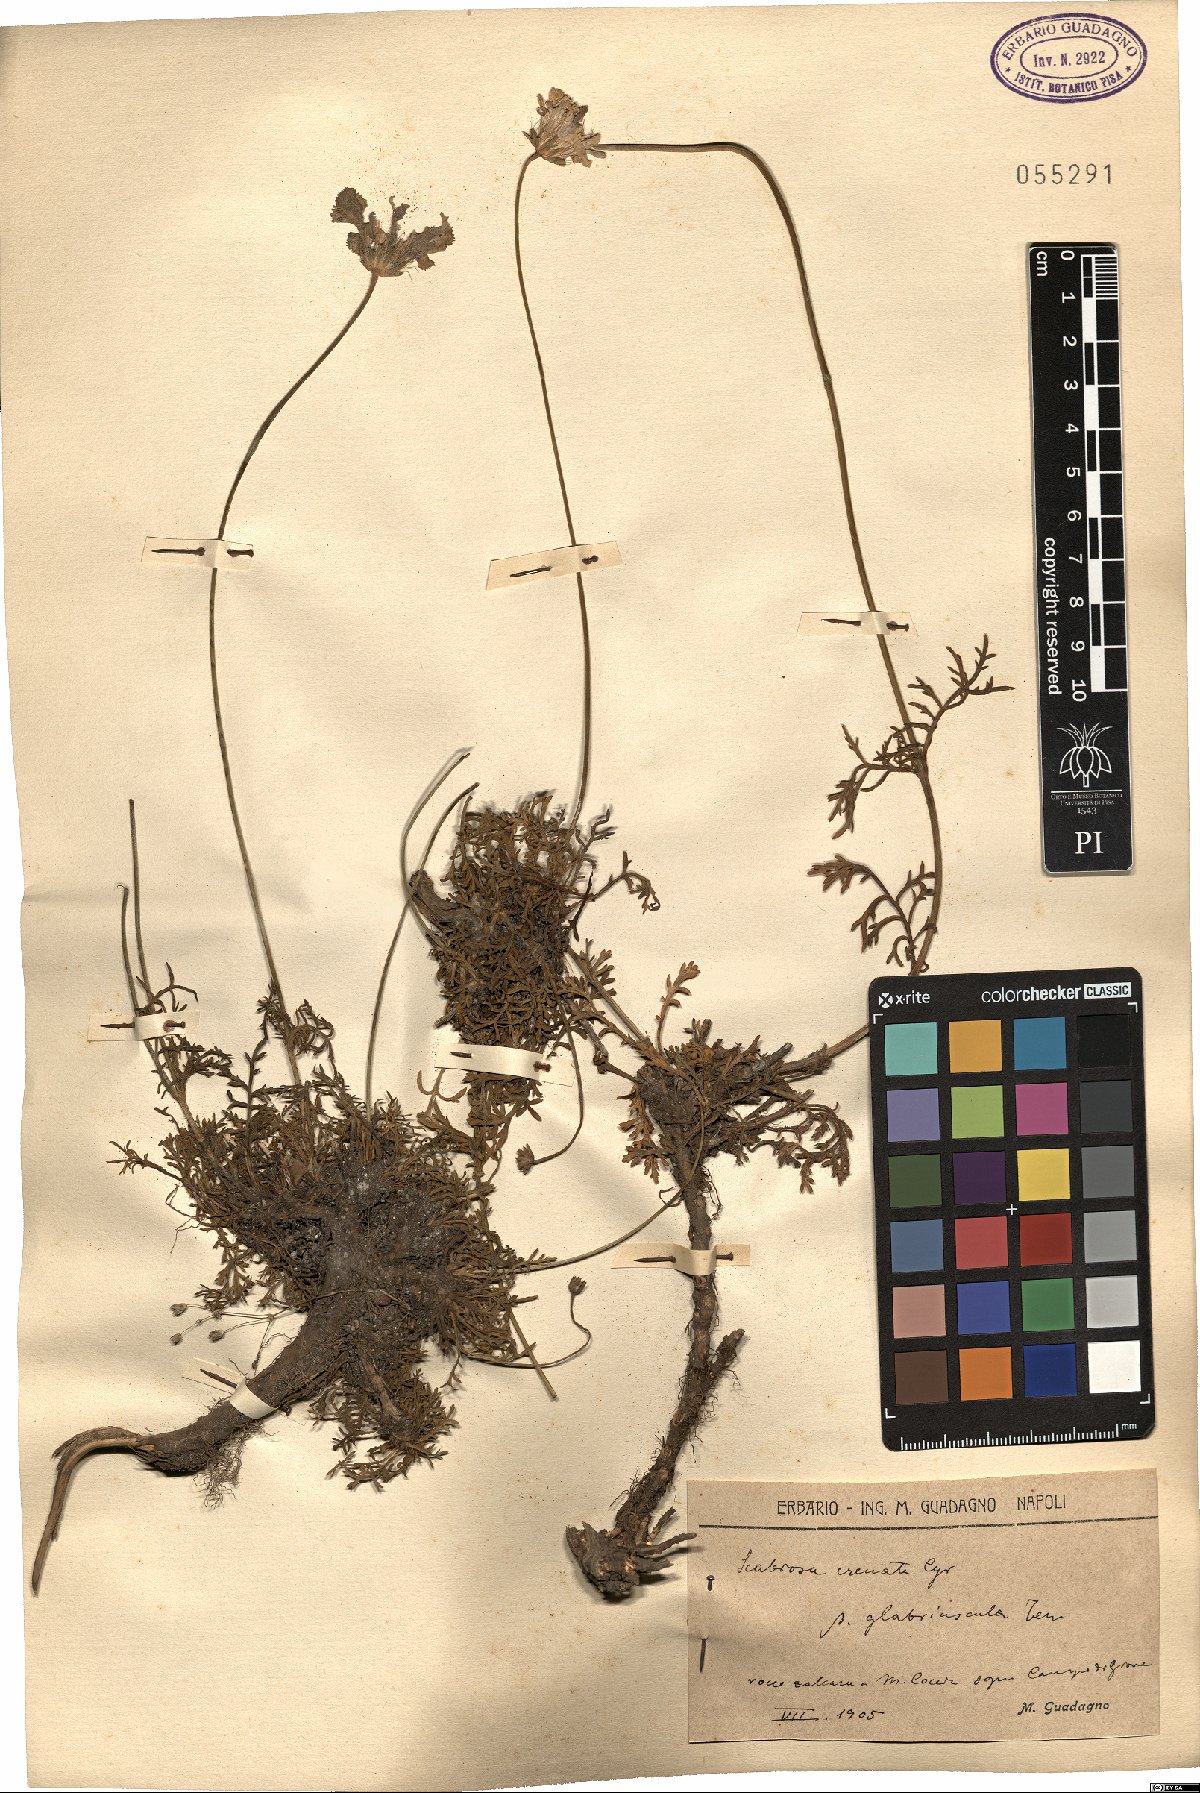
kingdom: Plantae
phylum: Tracheophyta
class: Magnoliopsida
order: Dipsacales
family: Caprifoliaceae
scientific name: Caprifoliaceae
